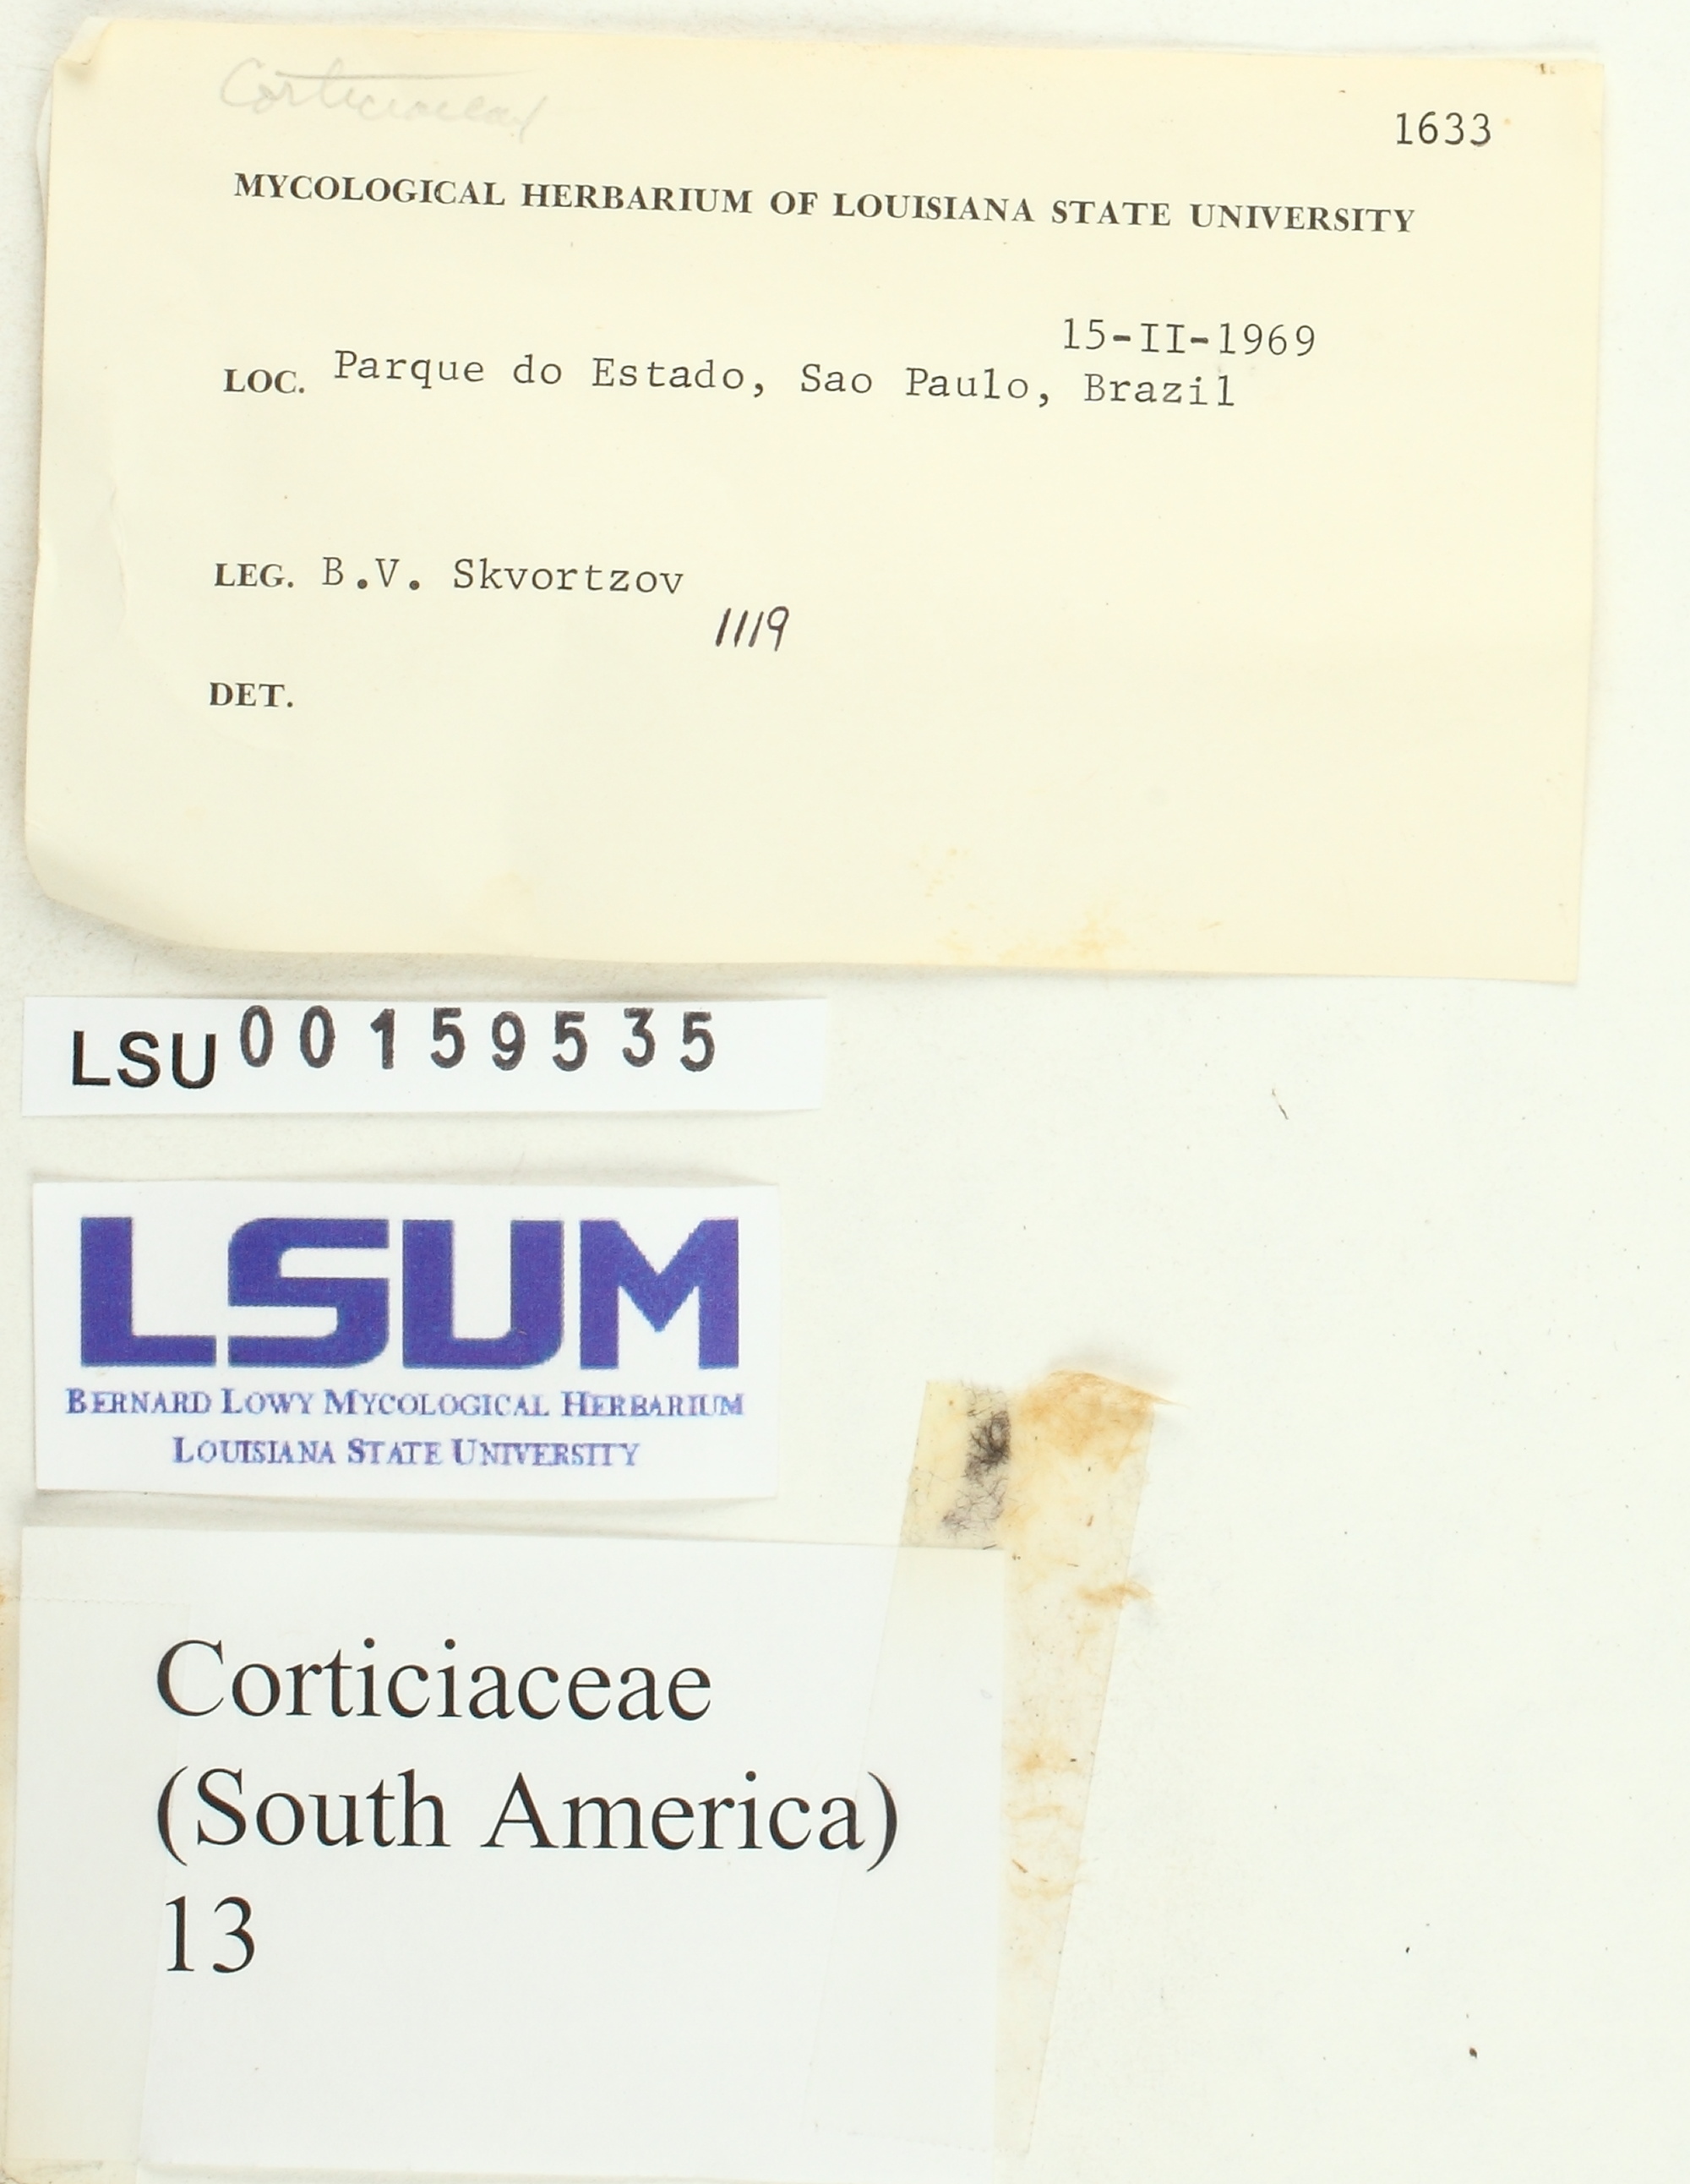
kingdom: Fungi
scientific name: Fungi
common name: Fungi
